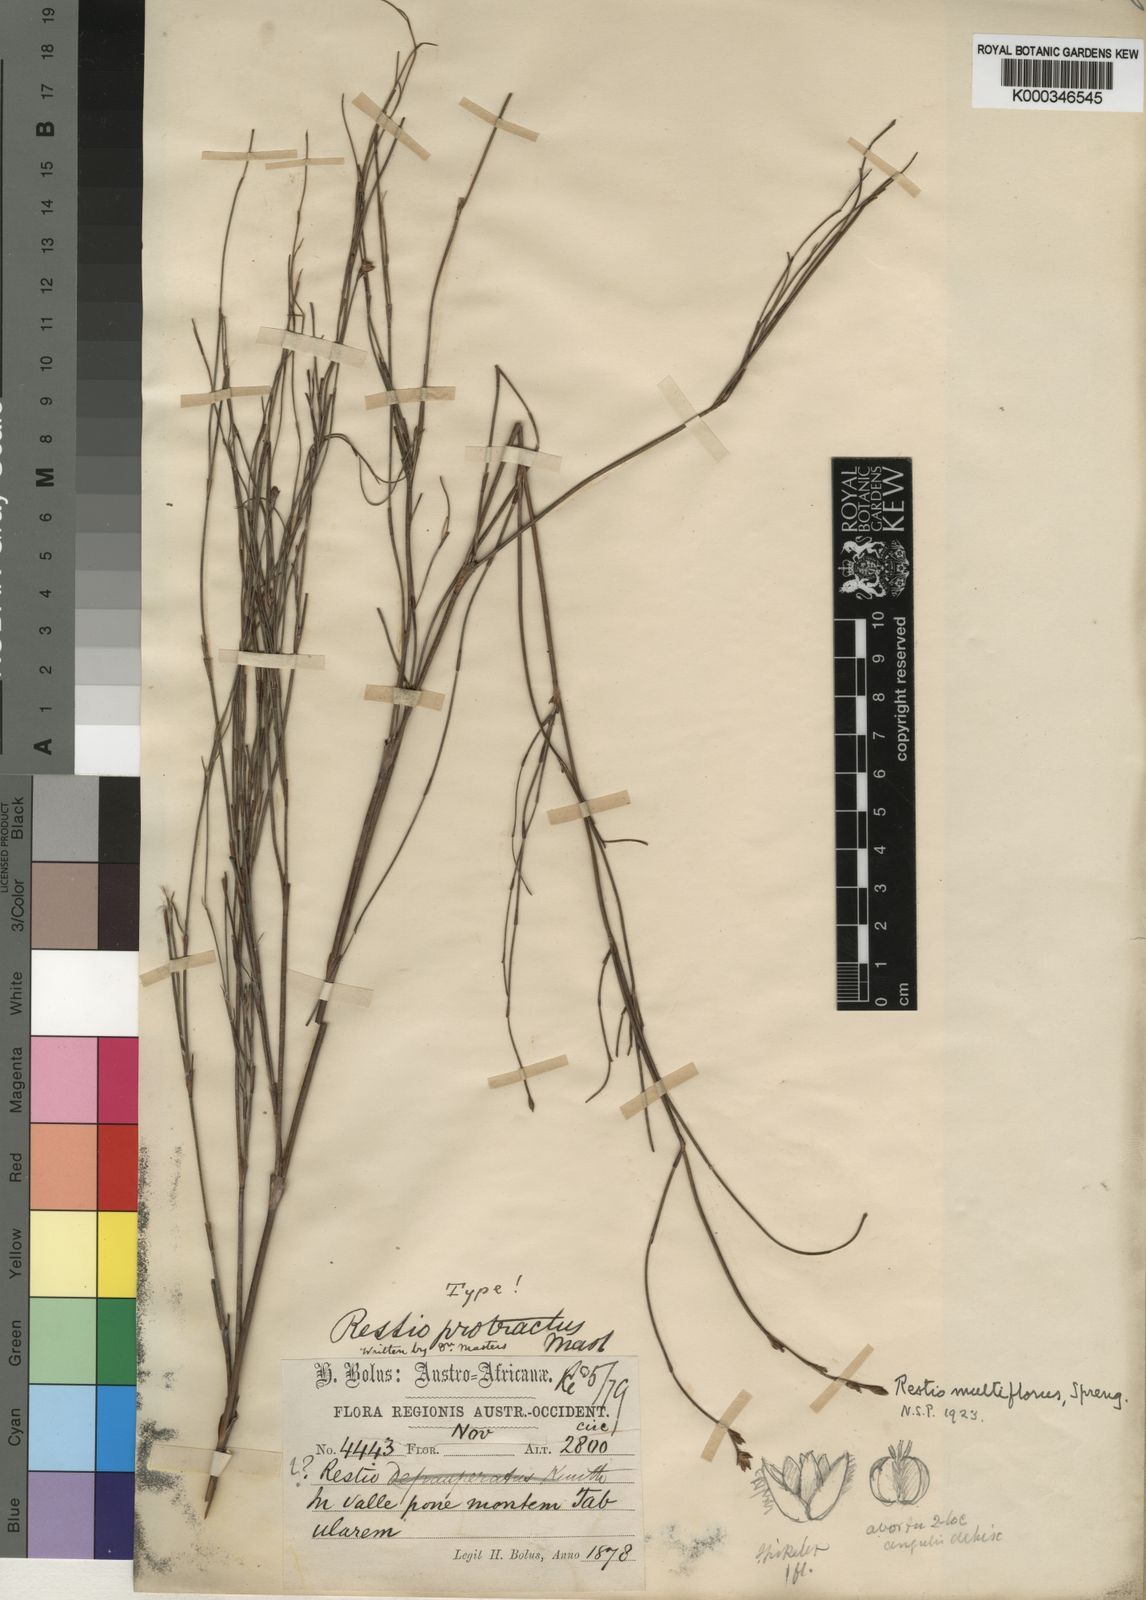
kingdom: Plantae
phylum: Tracheophyta
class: Liliopsida
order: Poales
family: Restionaceae
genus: Restio
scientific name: Restio multiflorus
